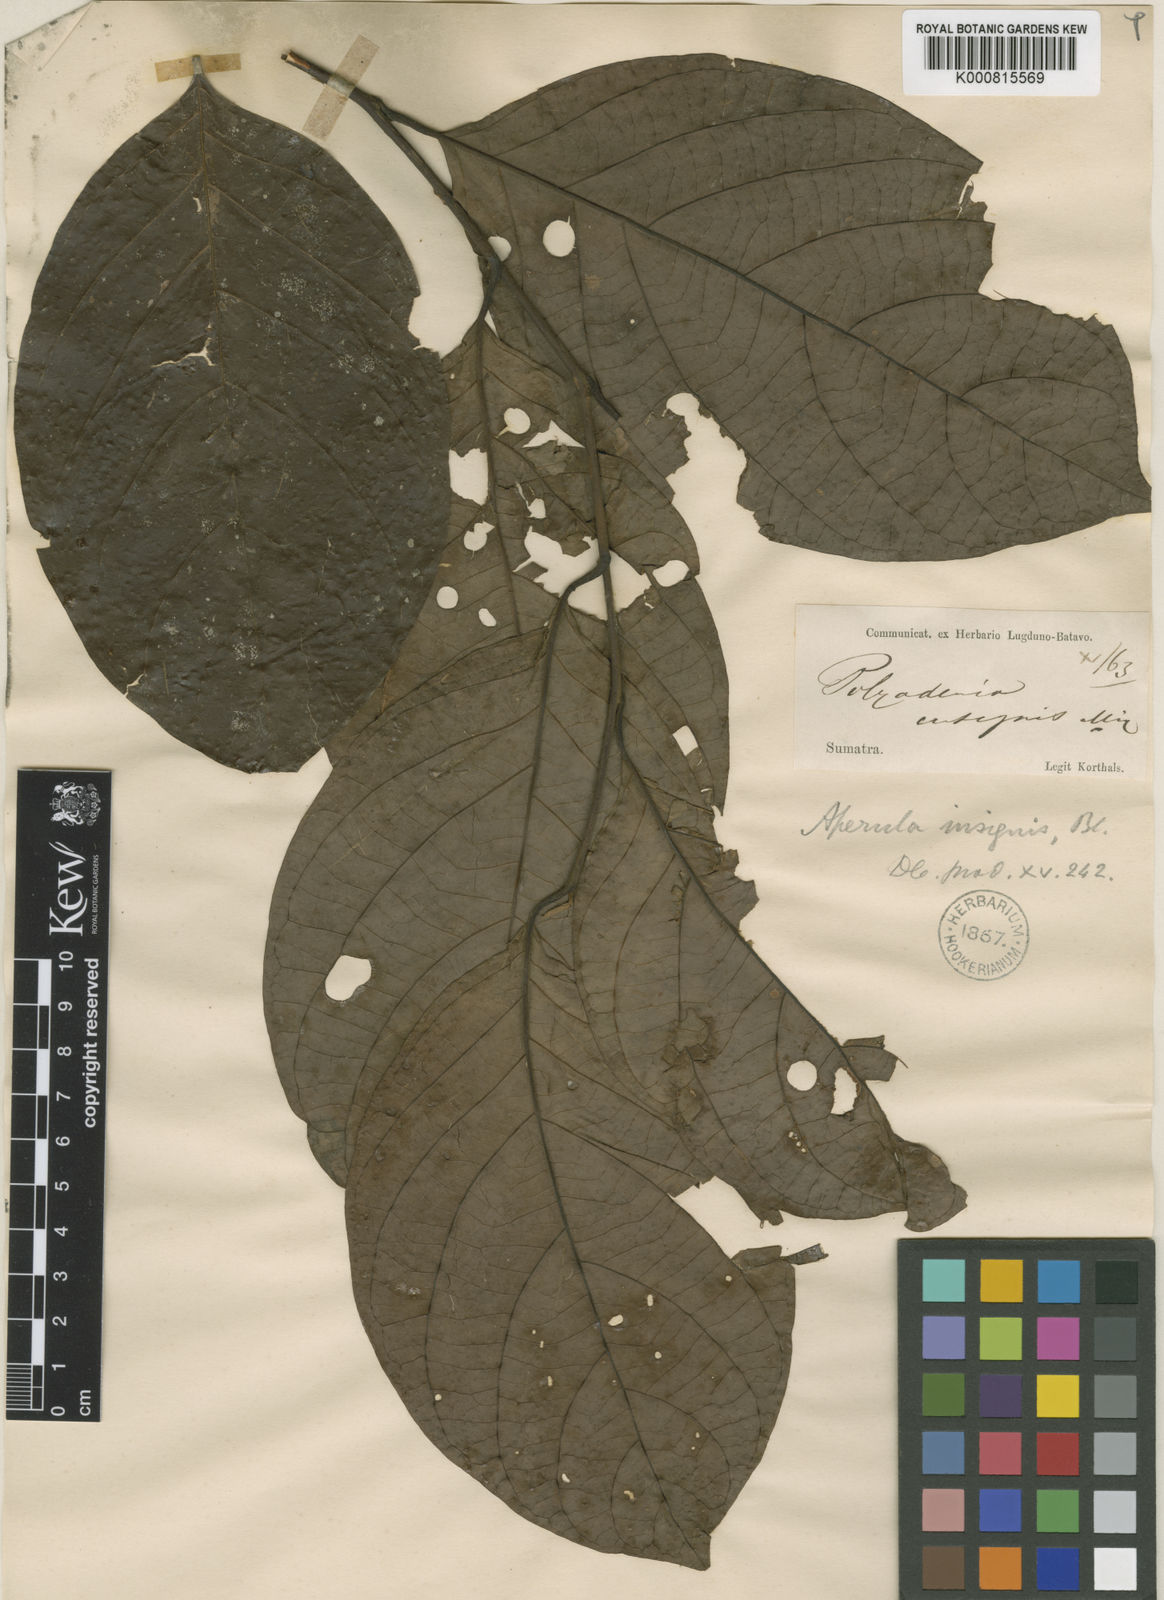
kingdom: Plantae
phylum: Tracheophyta
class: Magnoliopsida
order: Laurales
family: Lauraceae
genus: Lindera
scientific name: Lindera insignis
